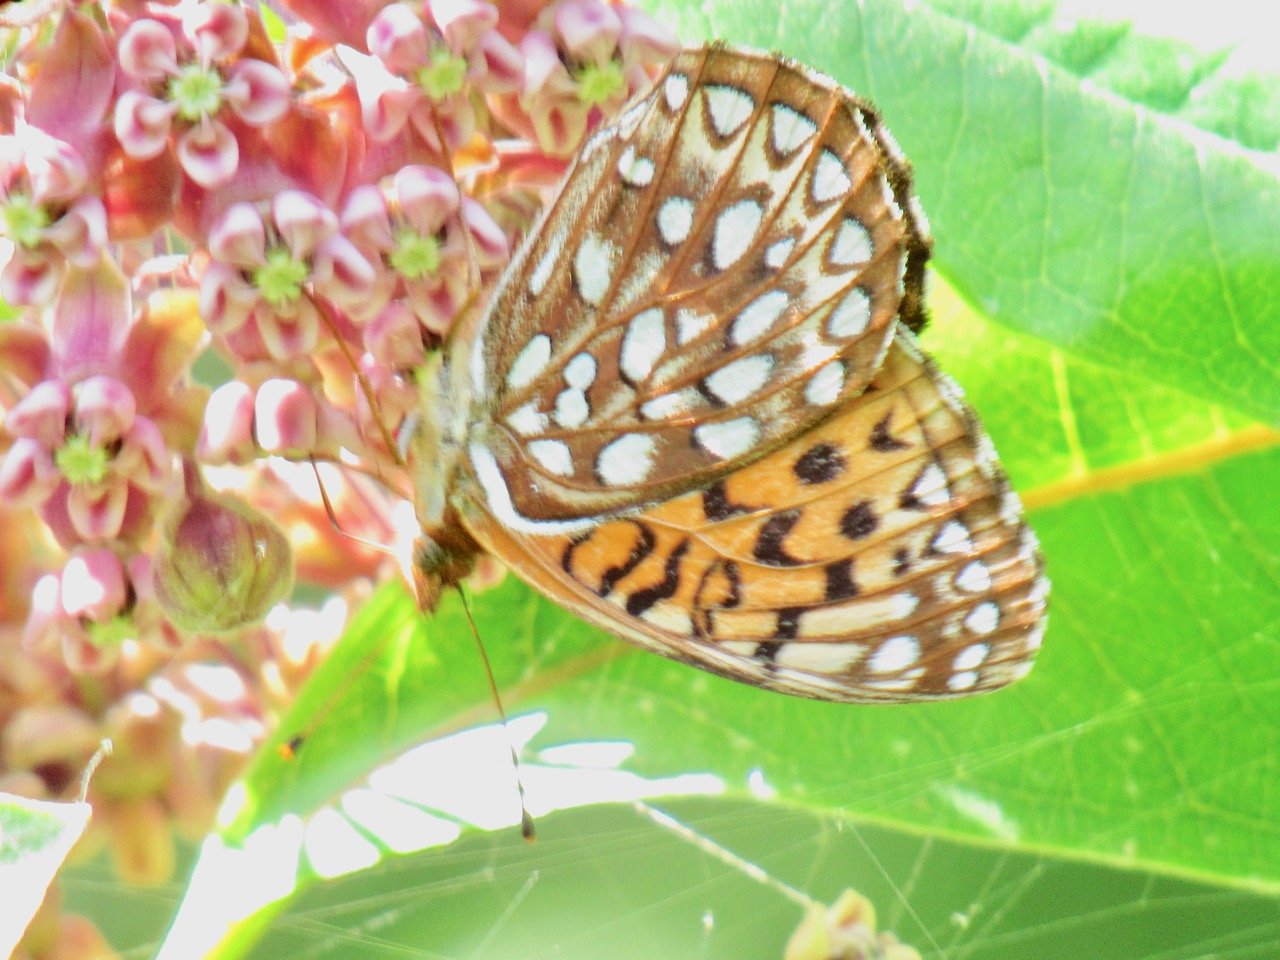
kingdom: Animalia
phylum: Arthropoda
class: Insecta
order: Lepidoptera
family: Nymphalidae
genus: Speyeria
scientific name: Speyeria atlantis
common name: Atlantis Fritillary
